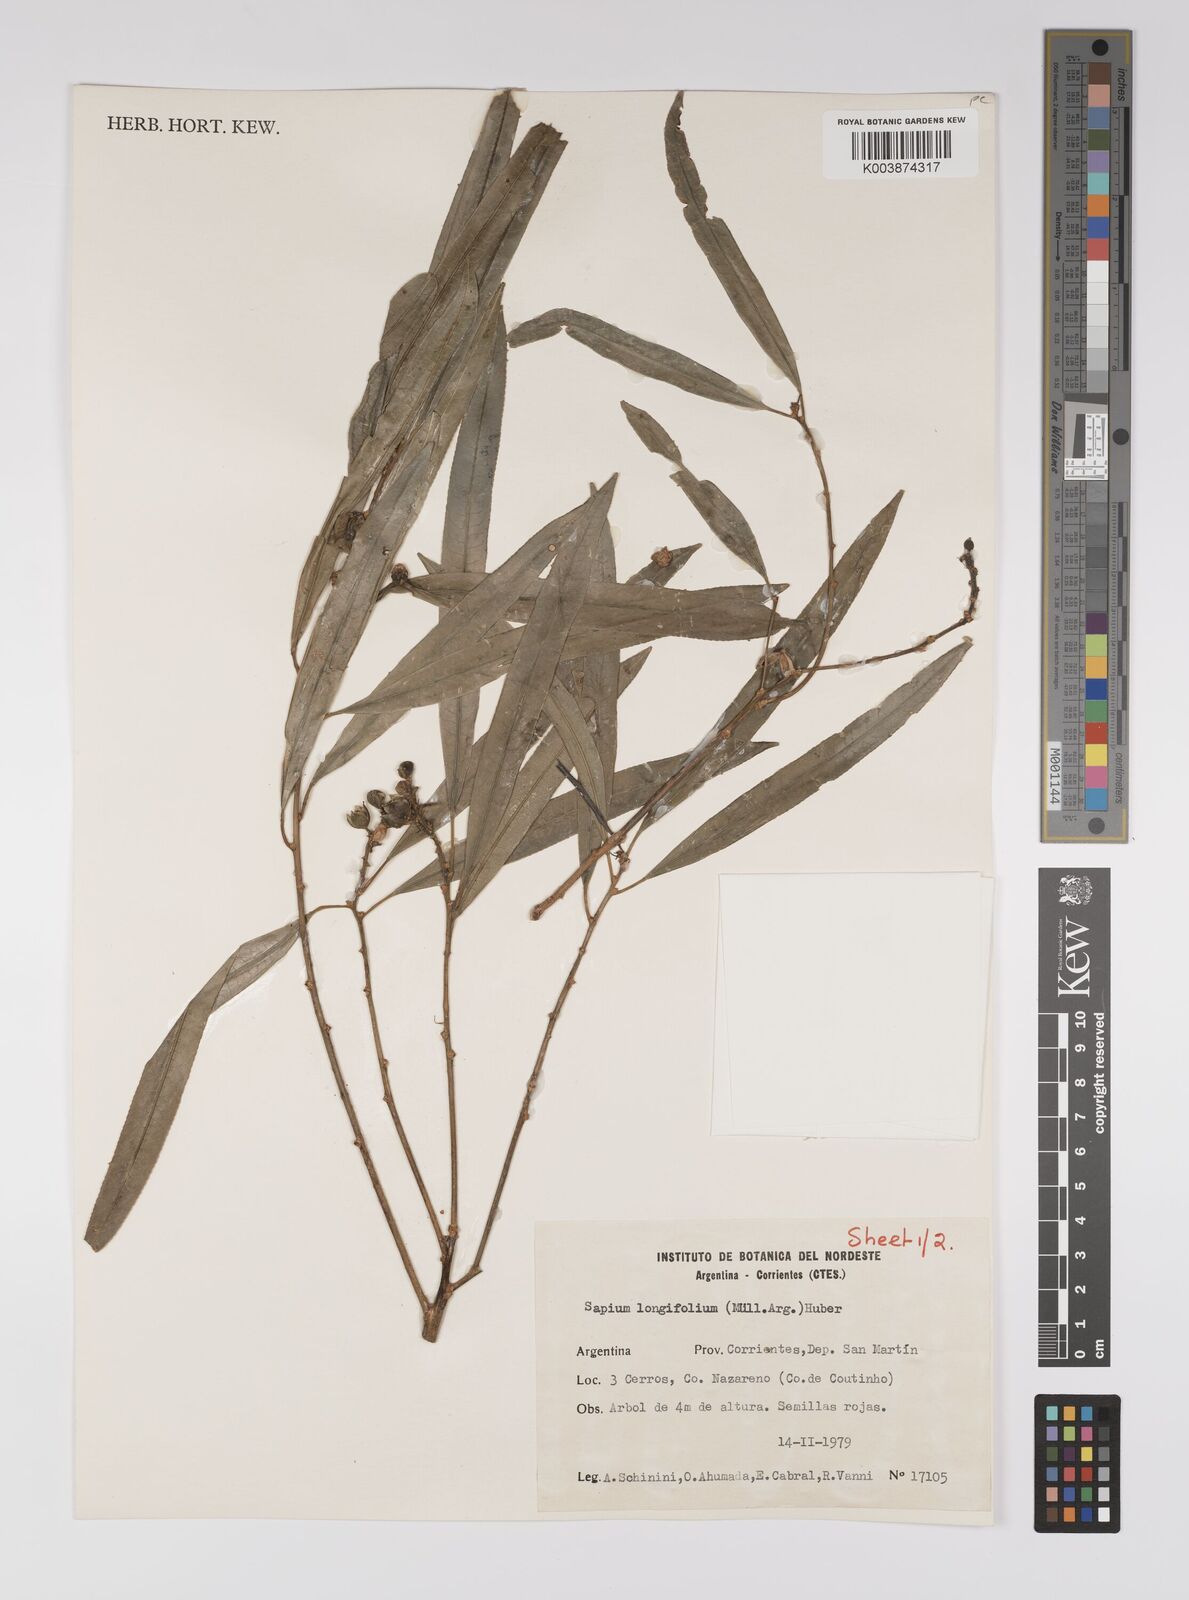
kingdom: Plantae
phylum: Tracheophyta
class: Magnoliopsida
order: Malpighiales
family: Euphorbiaceae
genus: Sapium
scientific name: Sapium haematospermum
